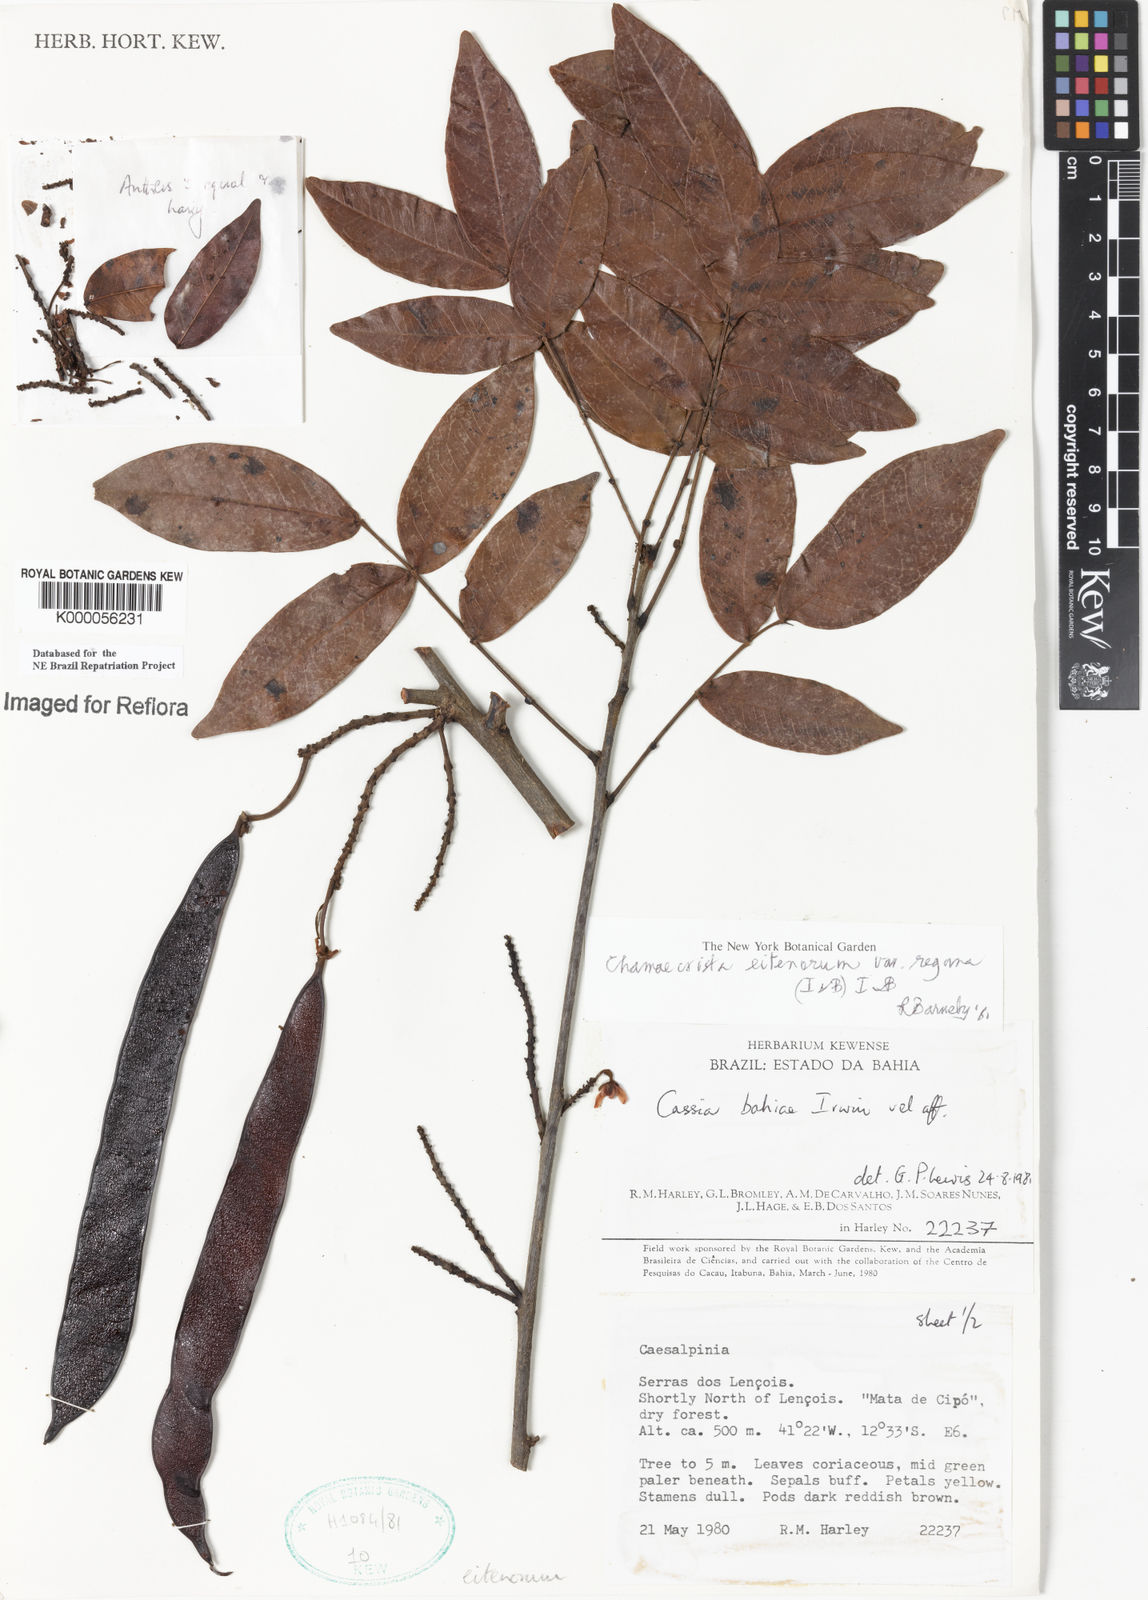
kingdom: Plantae
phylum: Tracheophyta
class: Magnoliopsida
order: Fabales
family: Fabaceae
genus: Chamaecrista
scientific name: Chamaecrista eitenorum
